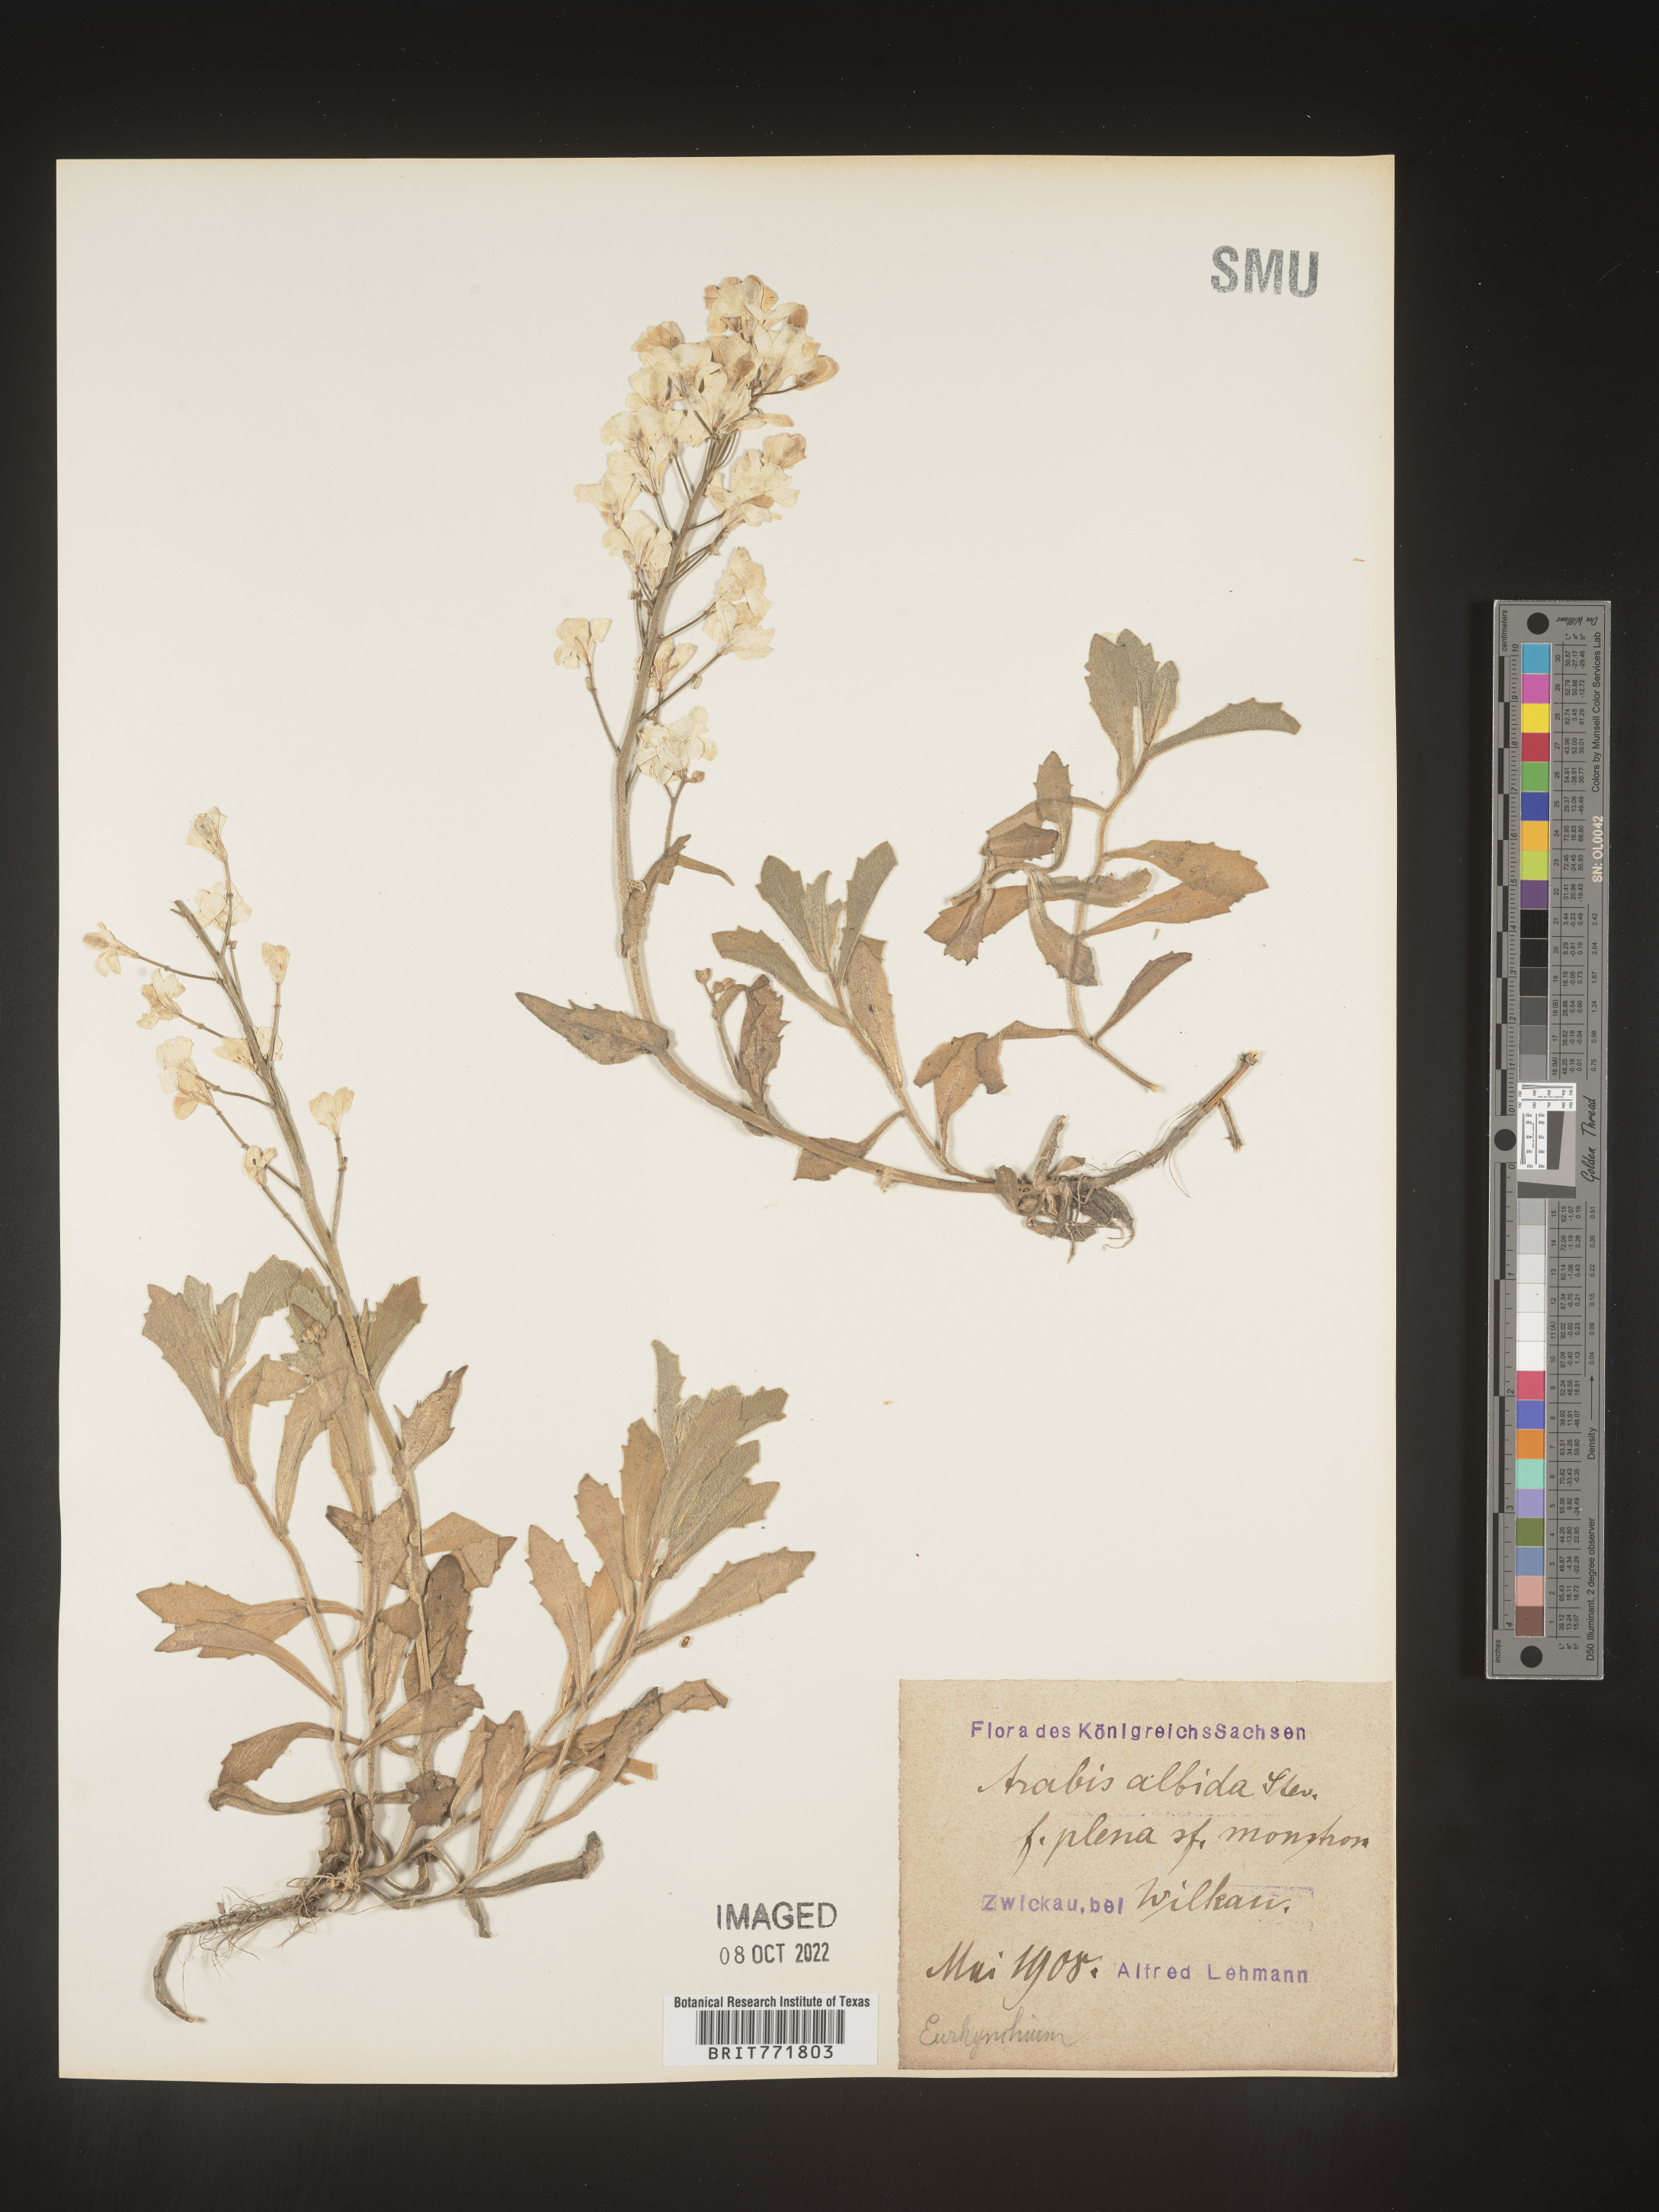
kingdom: Plantae
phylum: Tracheophyta
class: Magnoliopsida
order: Brassicales
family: Brassicaceae
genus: Arabis
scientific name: Arabis
